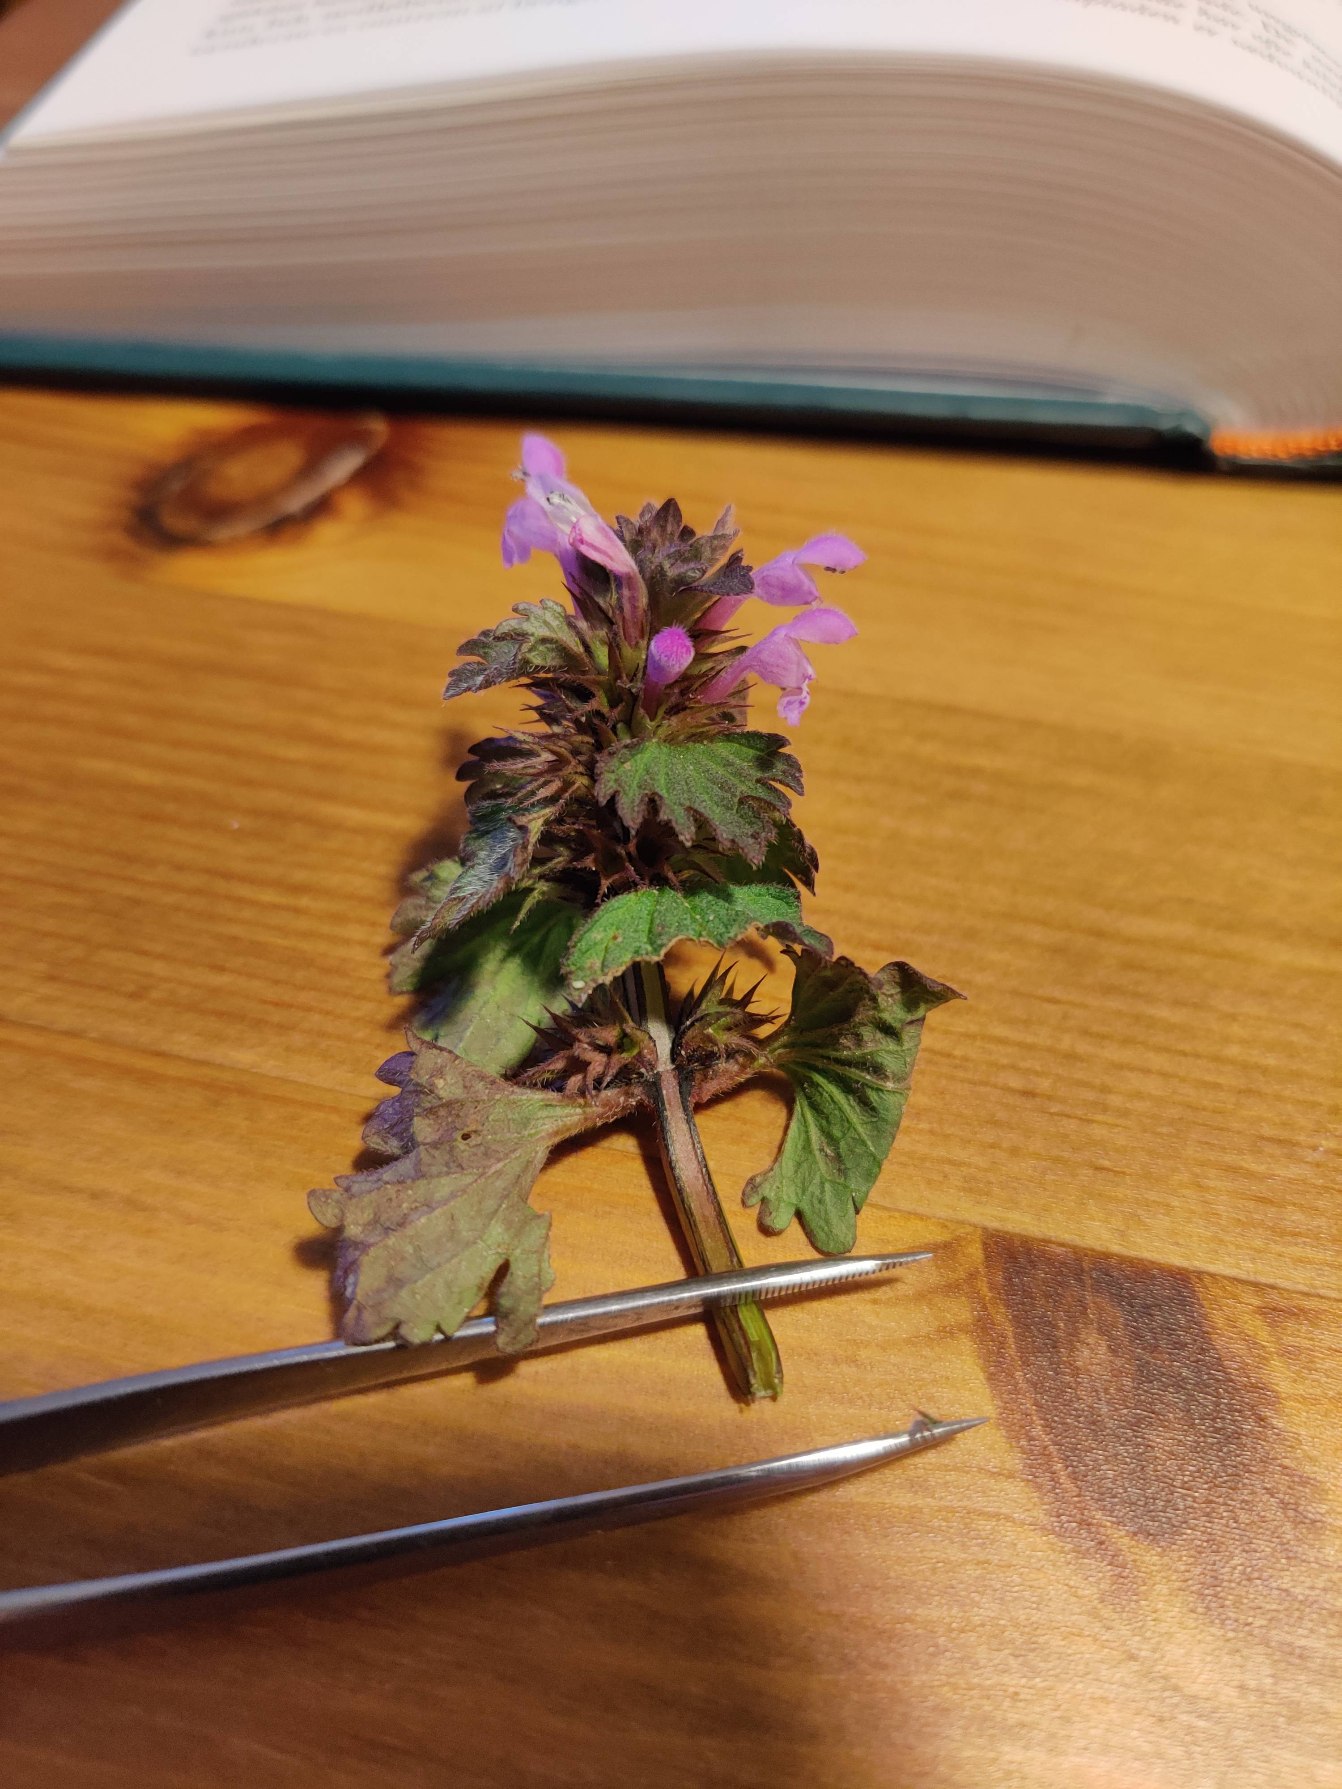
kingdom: Plantae
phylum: Tracheophyta
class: Magnoliopsida
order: Lamiales
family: Lamiaceae
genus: Lamium
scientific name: Lamium hybridum
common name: Fliget tvetand
